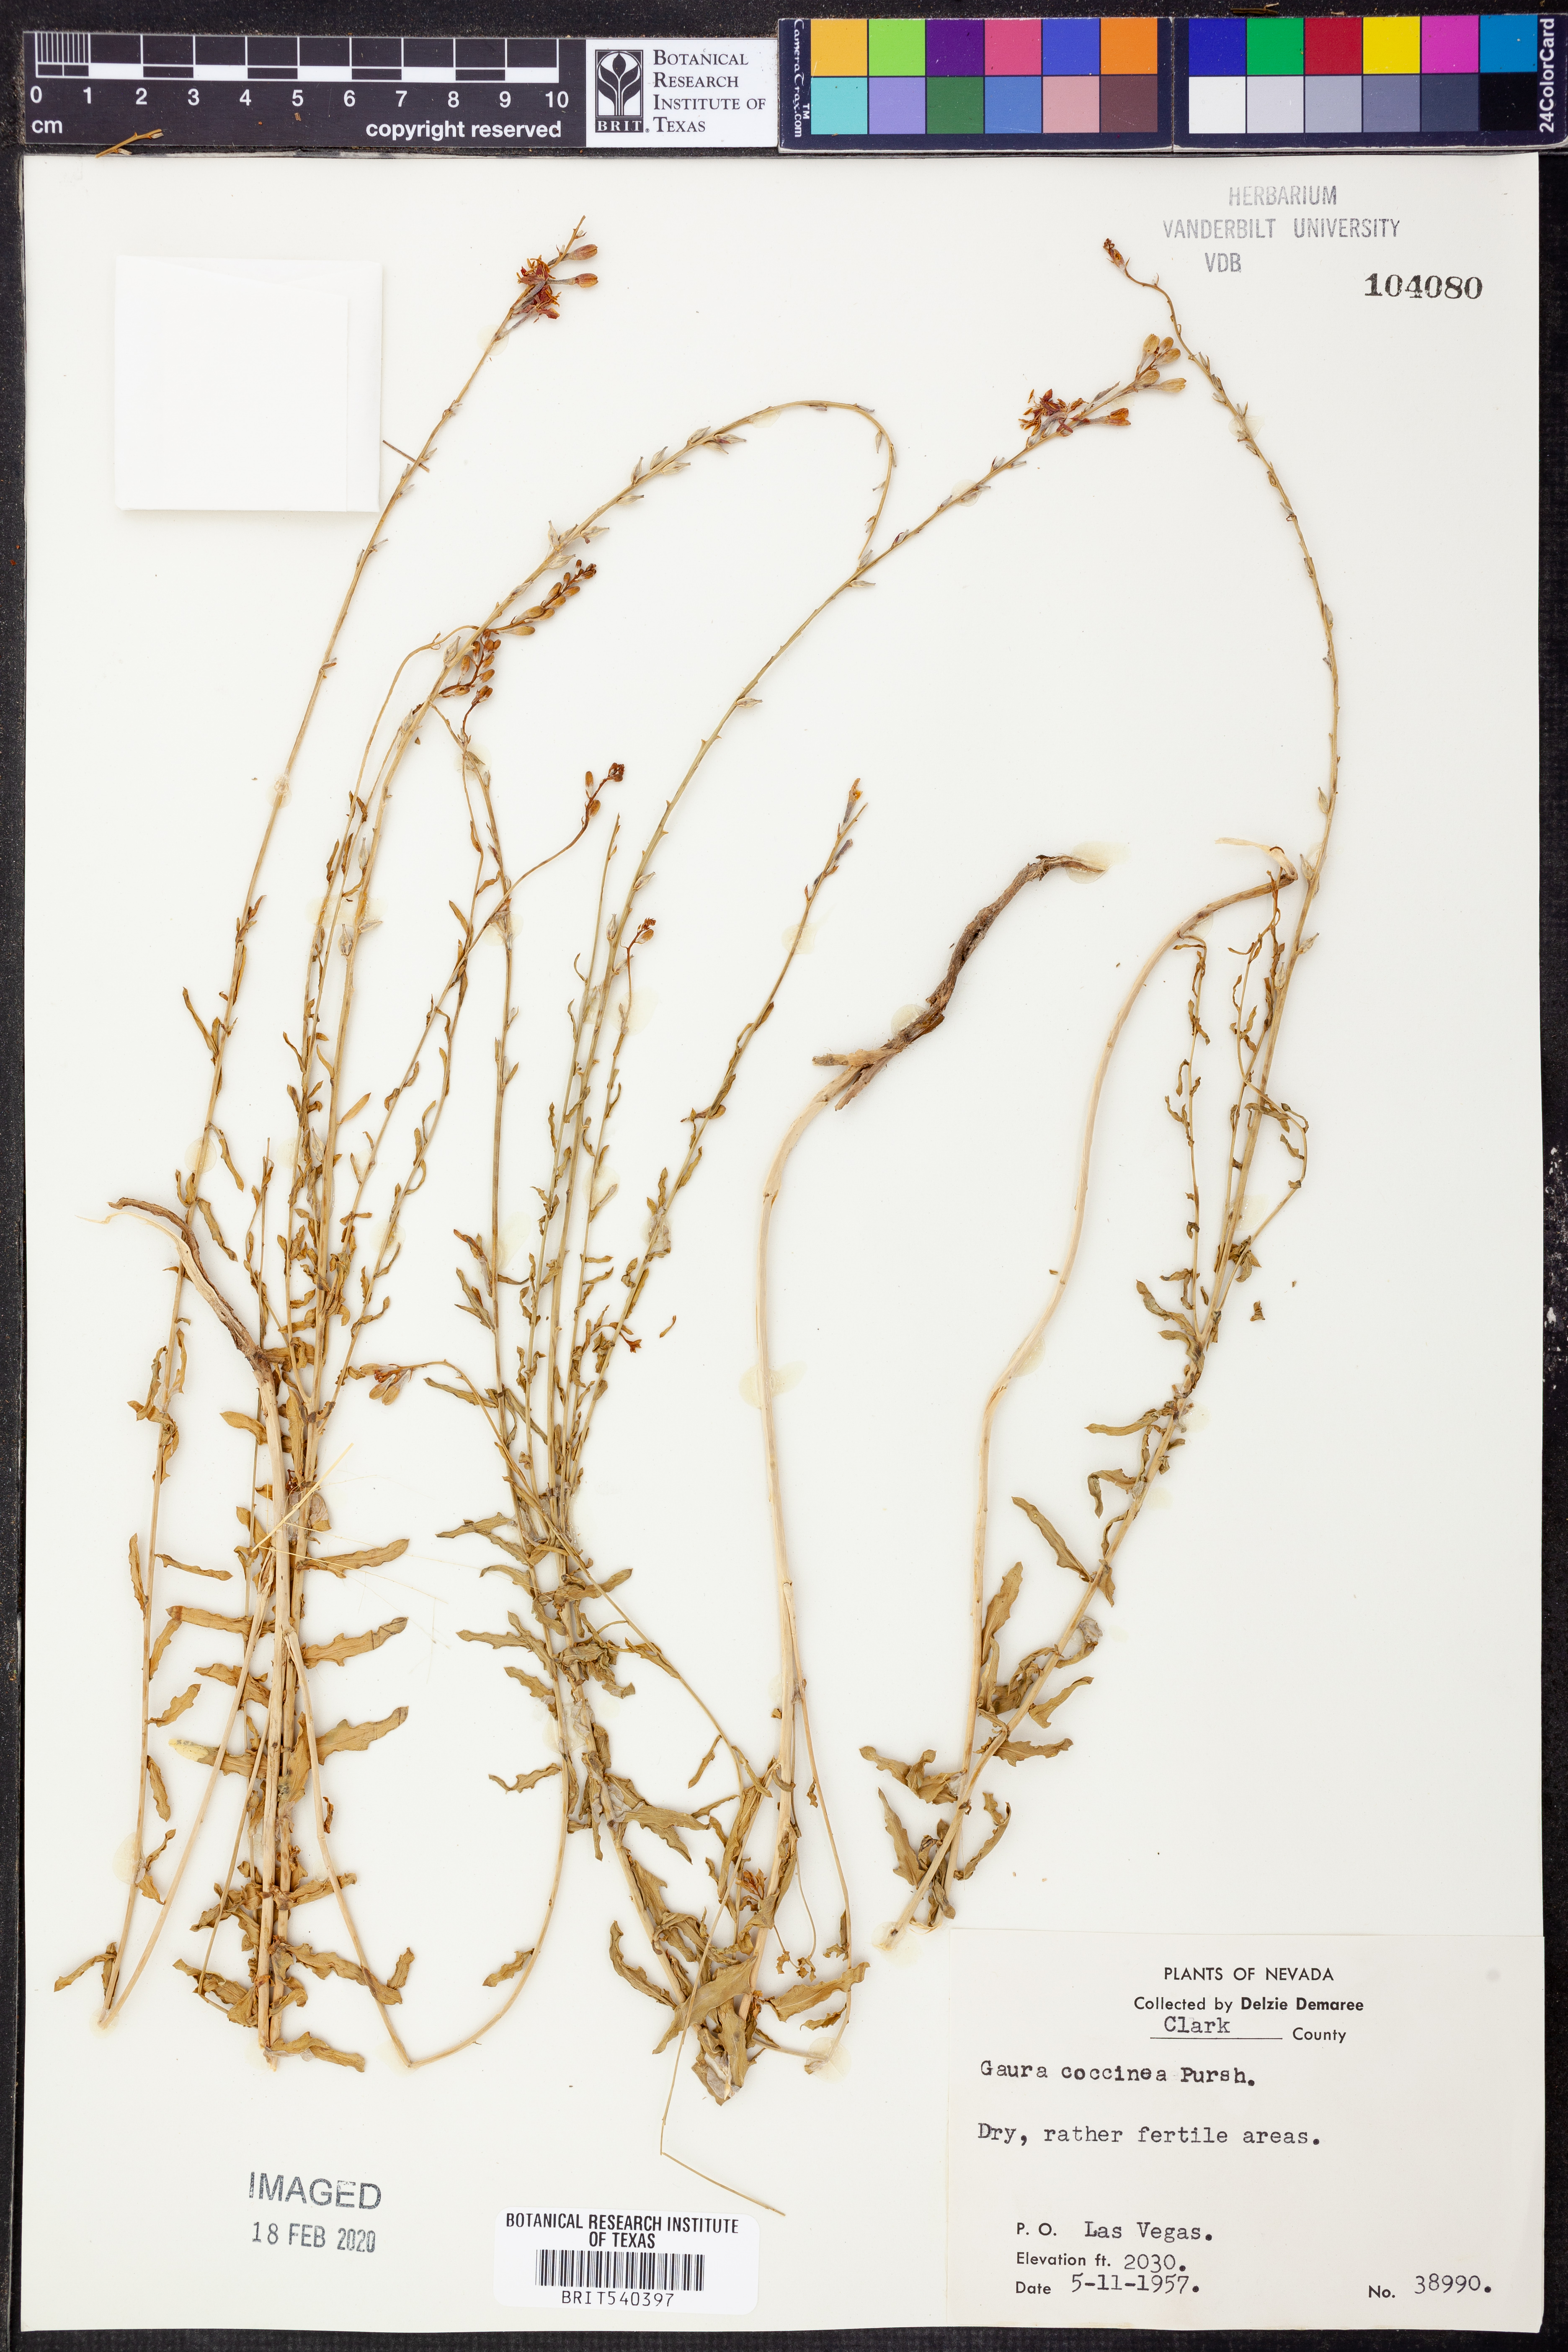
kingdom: Plantae
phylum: Tracheophyta
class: Magnoliopsida
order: Myrtales
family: Onagraceae
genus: Oenothera
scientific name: Oenothera suffrutescens
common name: Scarlet beeblossom
